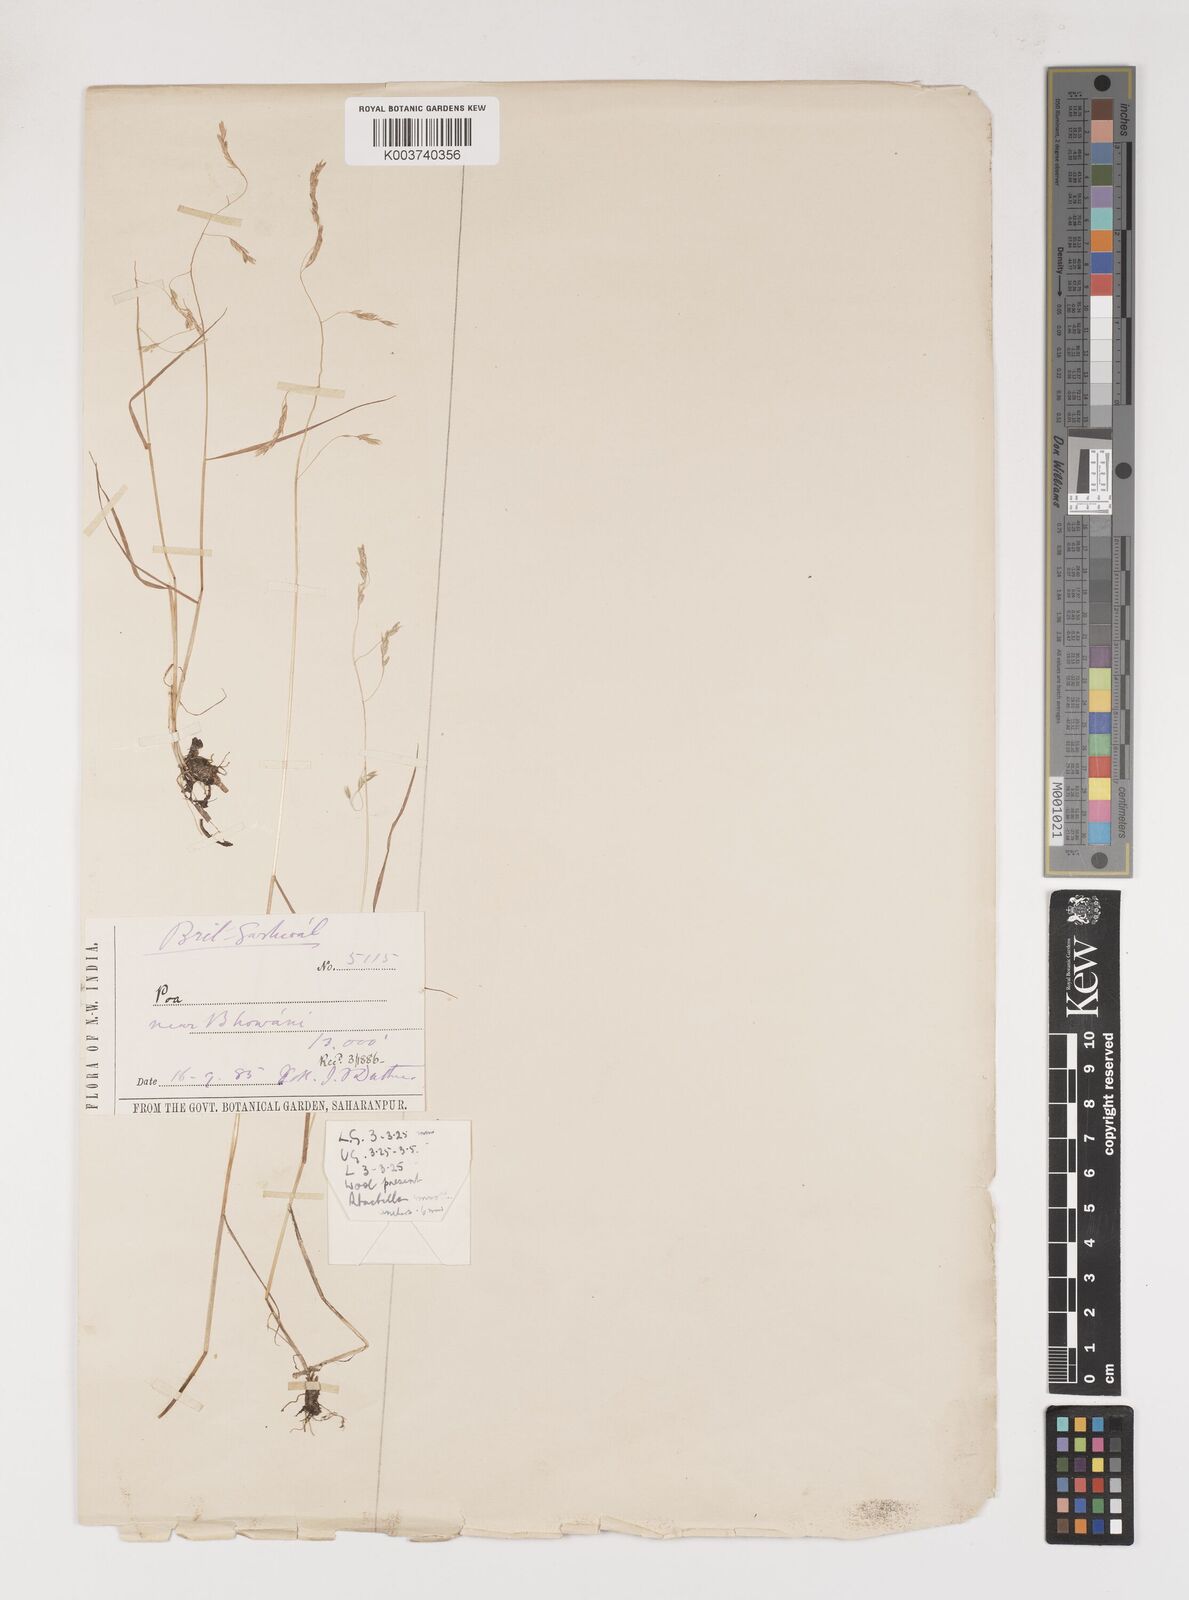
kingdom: Plantae
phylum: Tracheophyta
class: Liliopsida
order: Poales
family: Poaceae
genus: Poa
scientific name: Poa stapfiana
